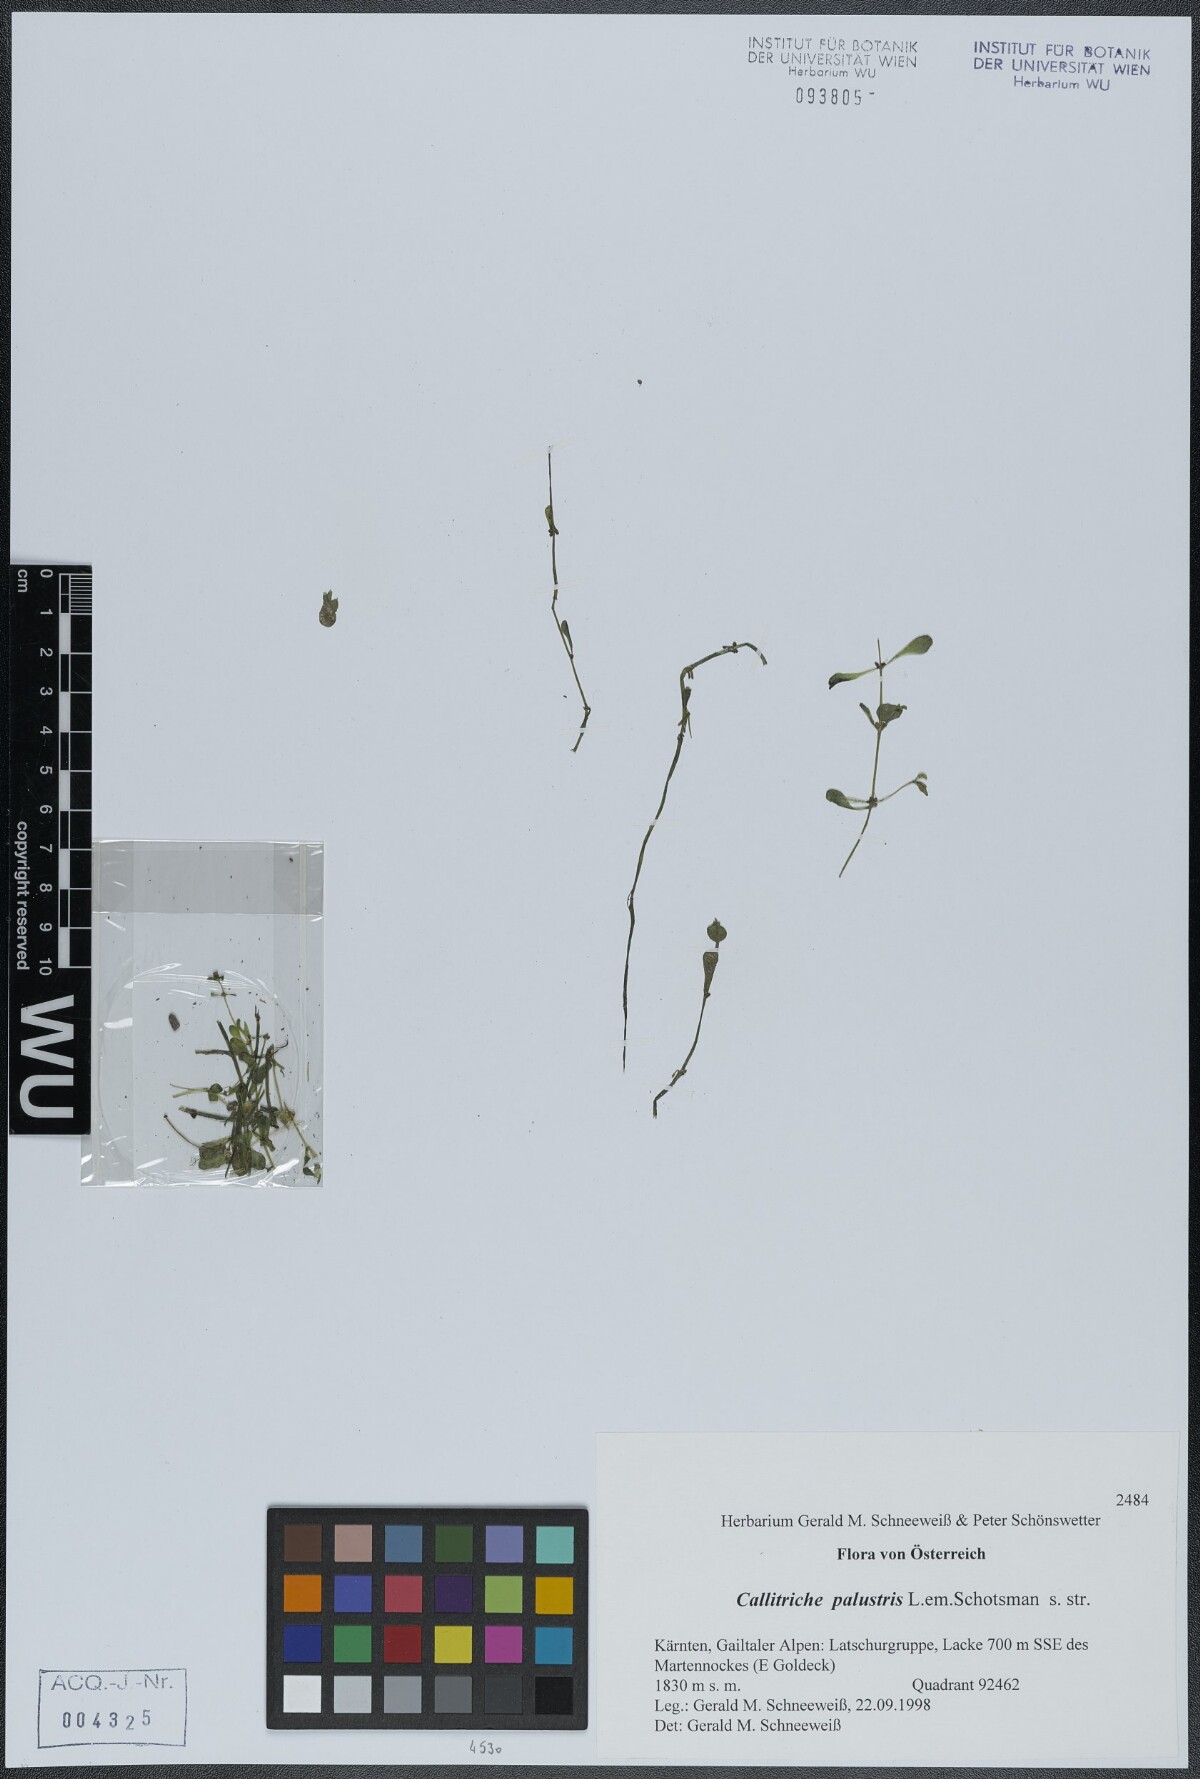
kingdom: Plantae
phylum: Tracheophyta
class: Magnoliopsida
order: Lamiales
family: Plantaginaceae
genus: Callitriche
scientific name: Callitriche palustris
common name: Spring water-starwort
